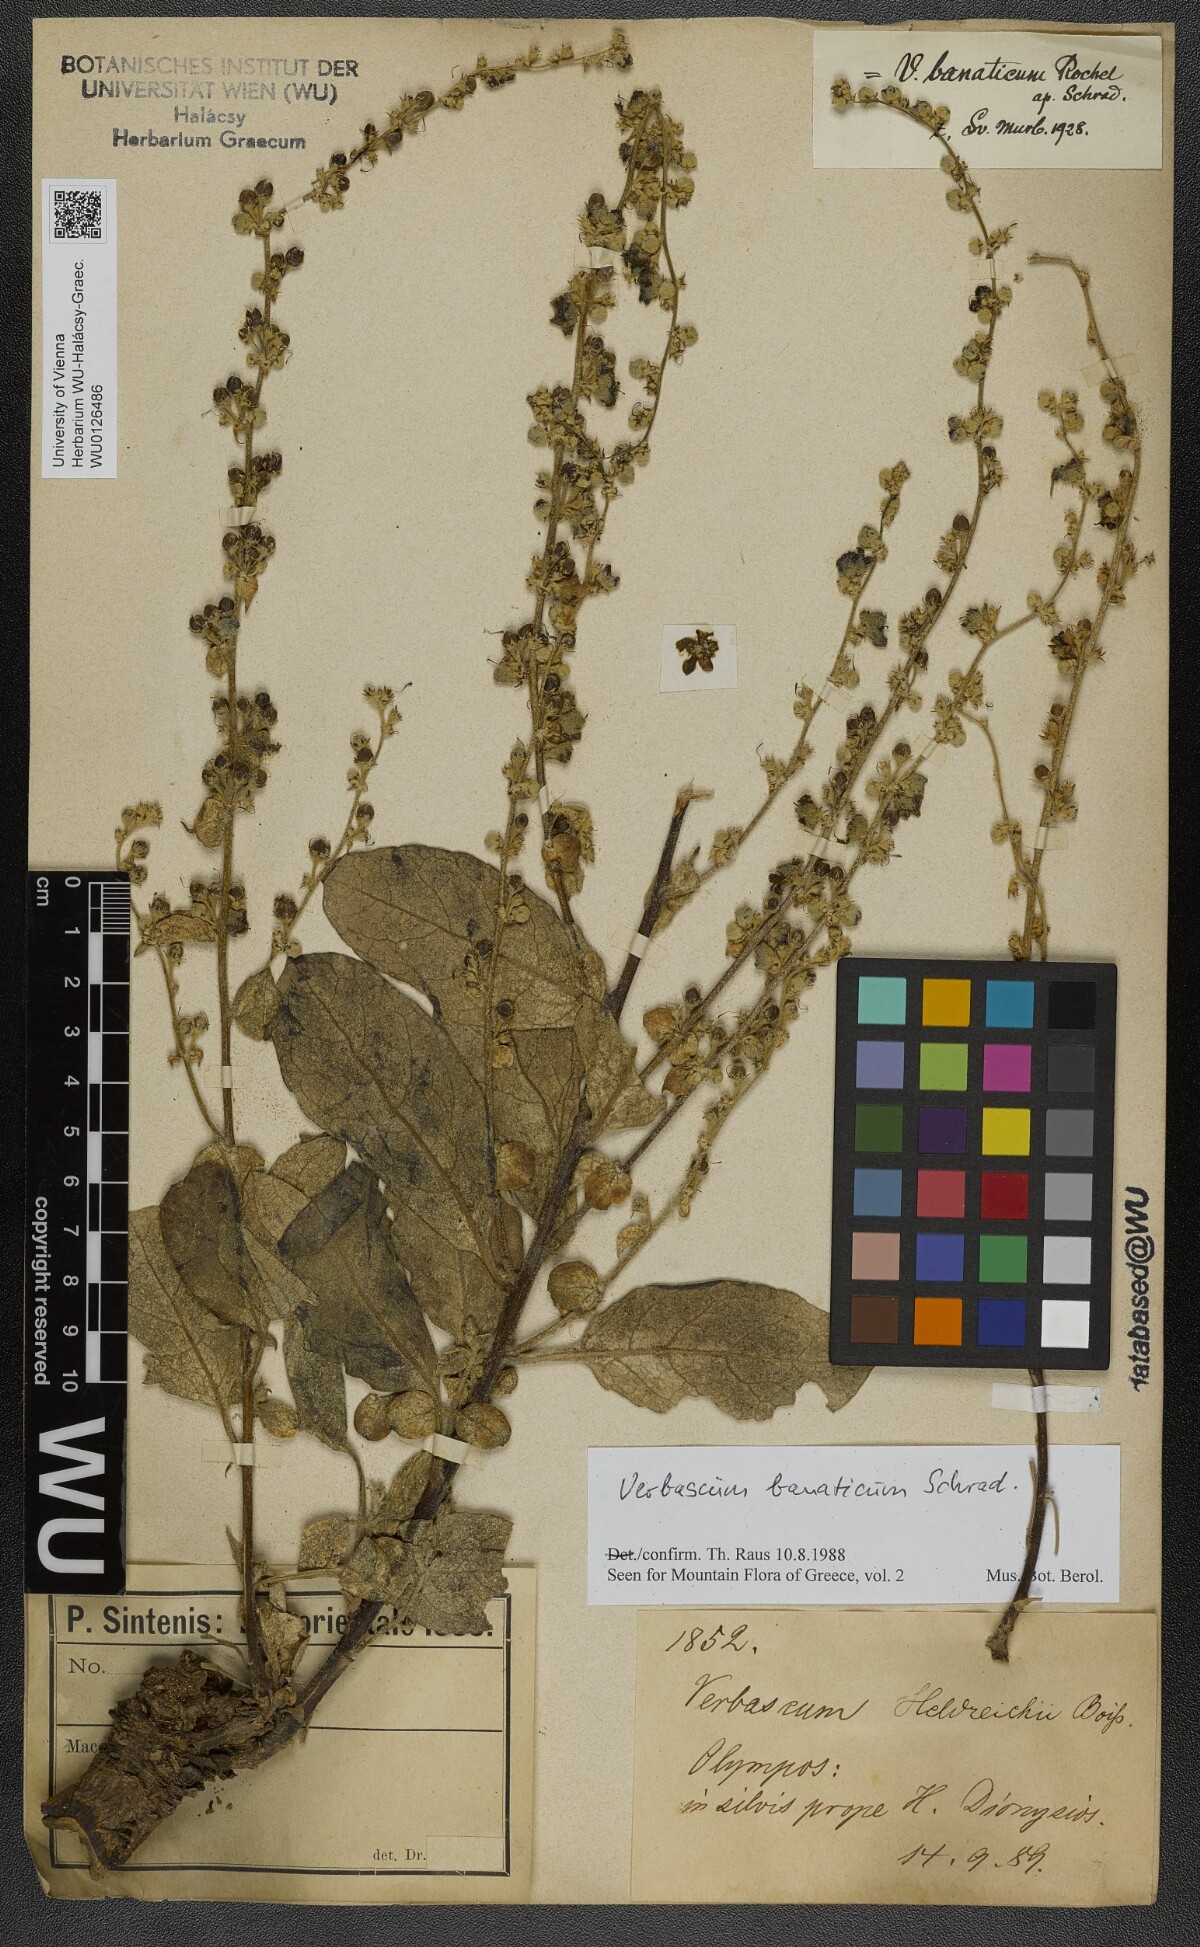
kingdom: Plantae
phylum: Tracheophyta
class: Magnoliopsida
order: Lamiales
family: Scrophulariaceae
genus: Verbascum
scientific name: Verbascum banaticum
